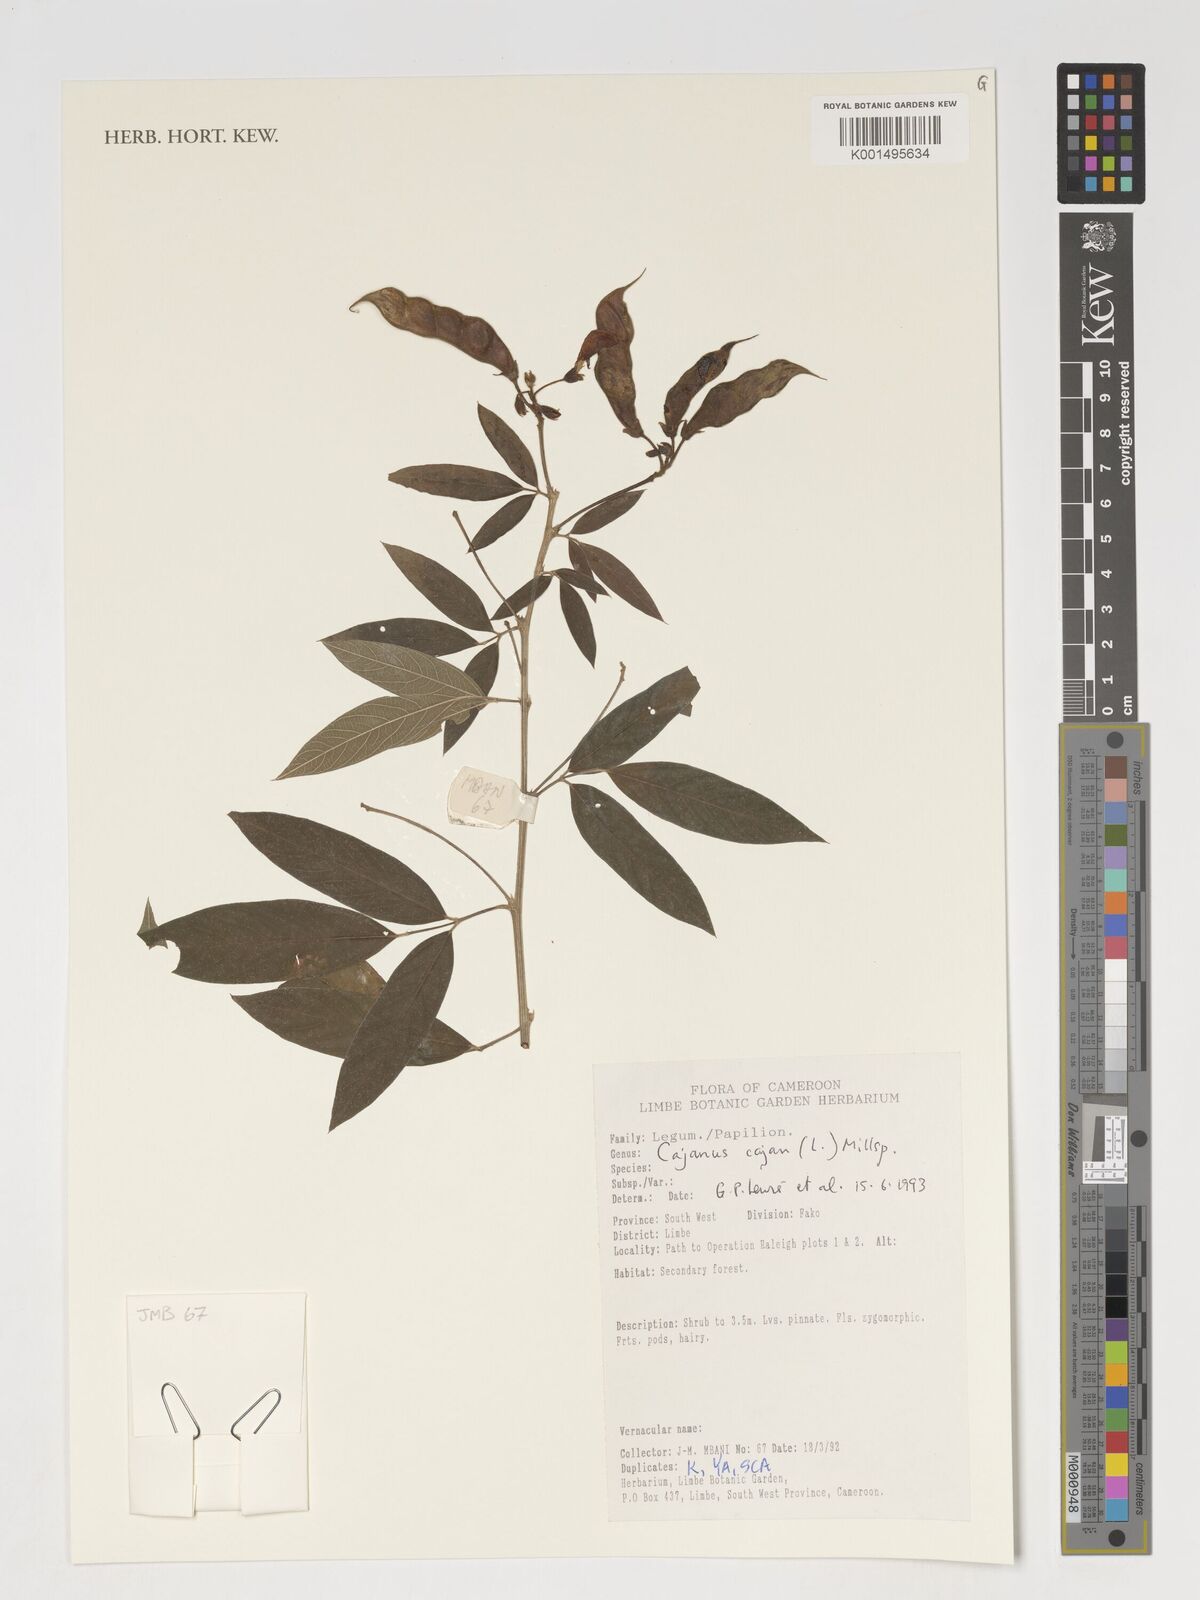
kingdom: Plantae
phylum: Tracheophyta
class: Magnoliopsida
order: Fabales
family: Fabaceae
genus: Cajanus
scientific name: Cajanus cajan
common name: Pigeonpea
